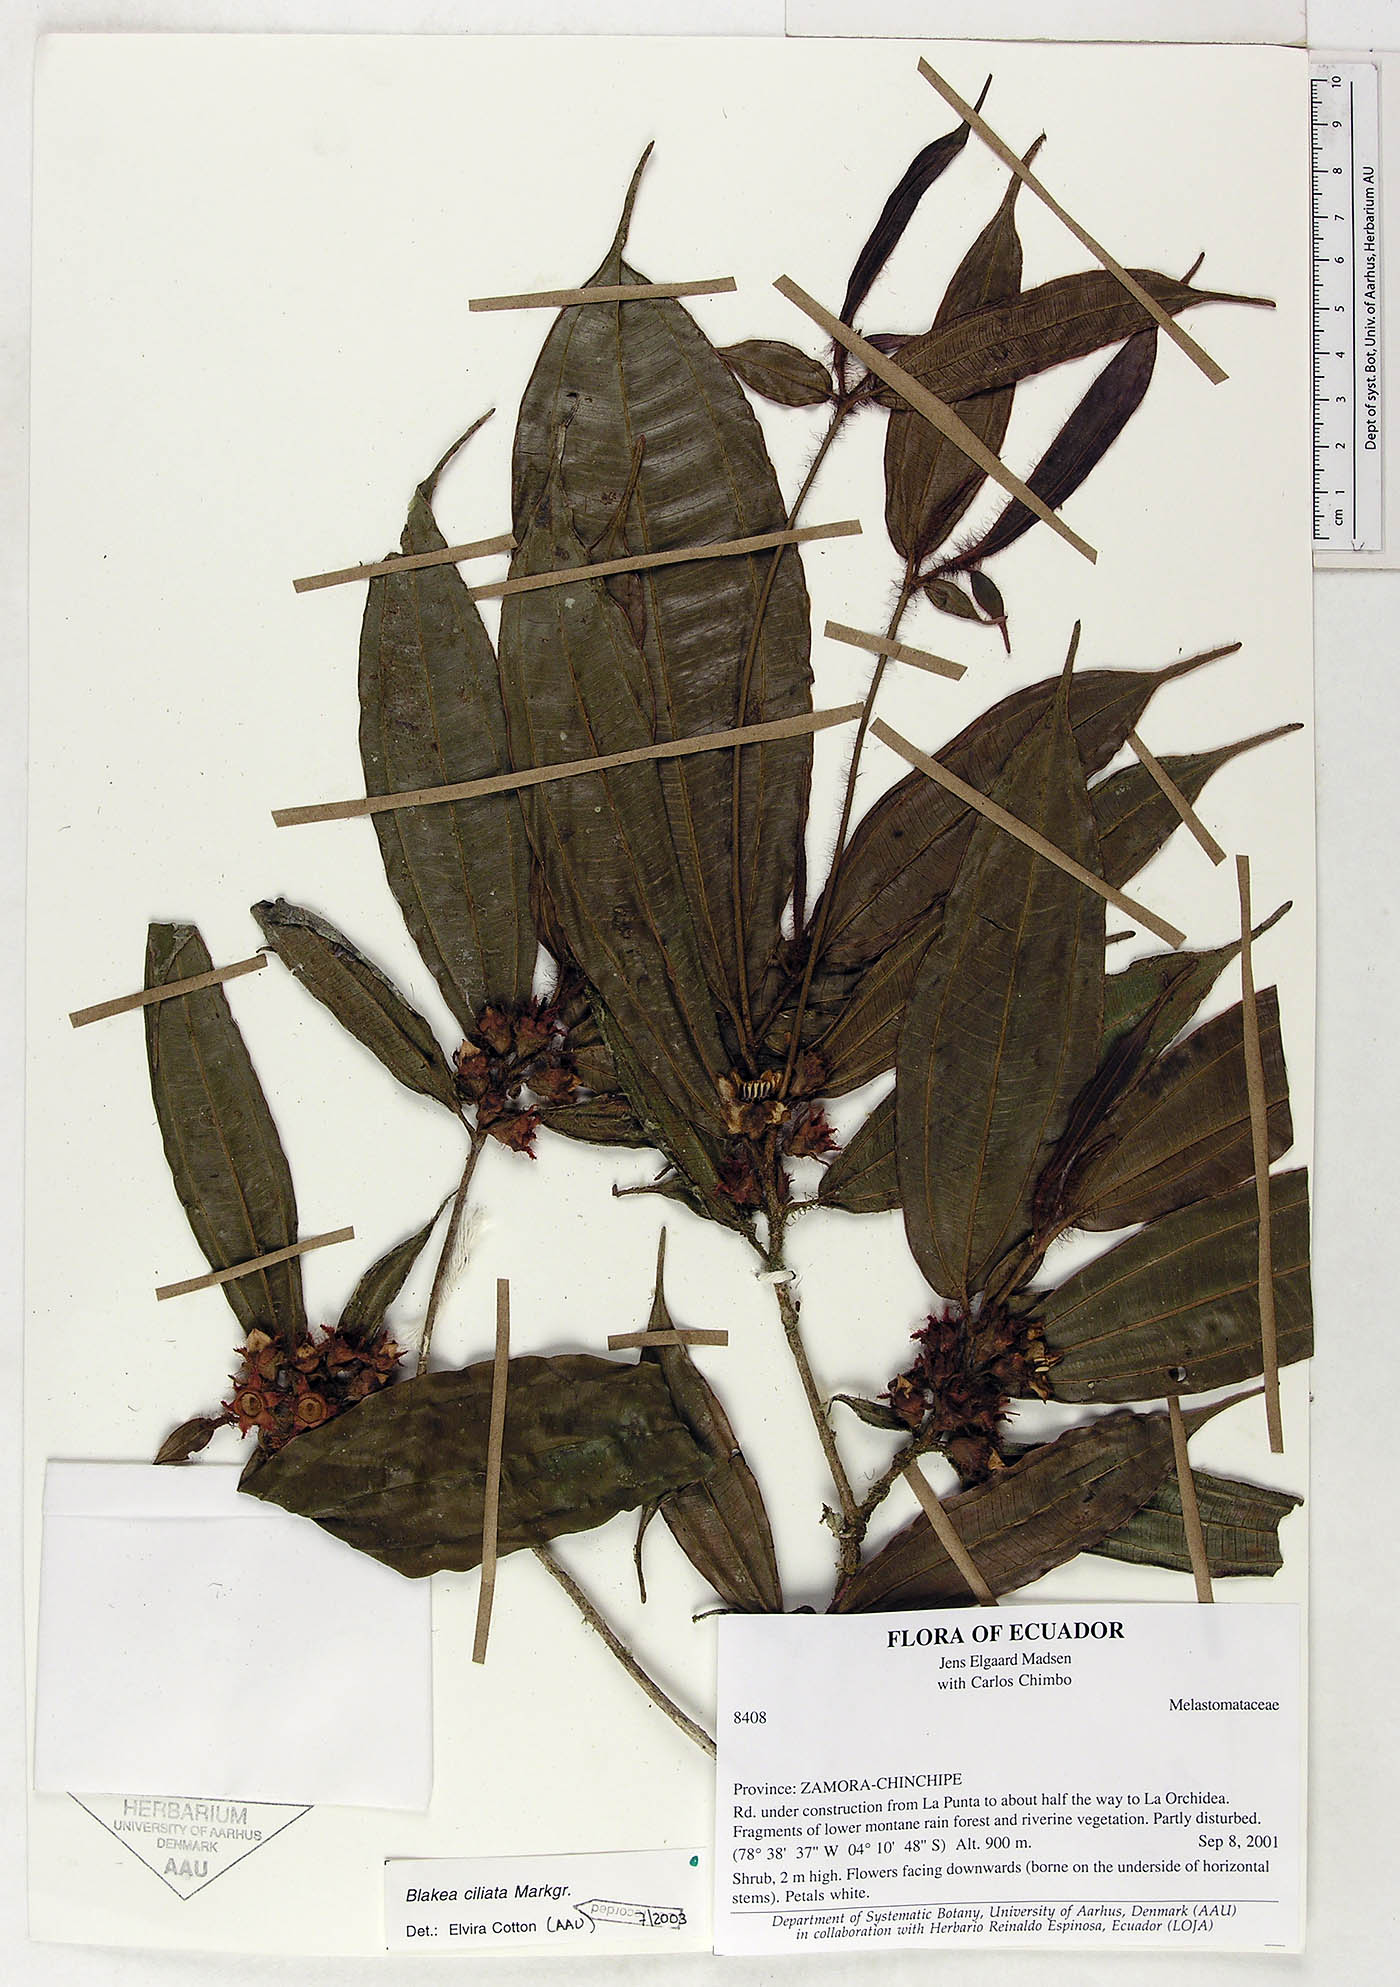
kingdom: Plantae
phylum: Tracheophyta
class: Magnoliopsida
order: Myrtales
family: Melastomataceae
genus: Blakea
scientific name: Blakea ciliata
